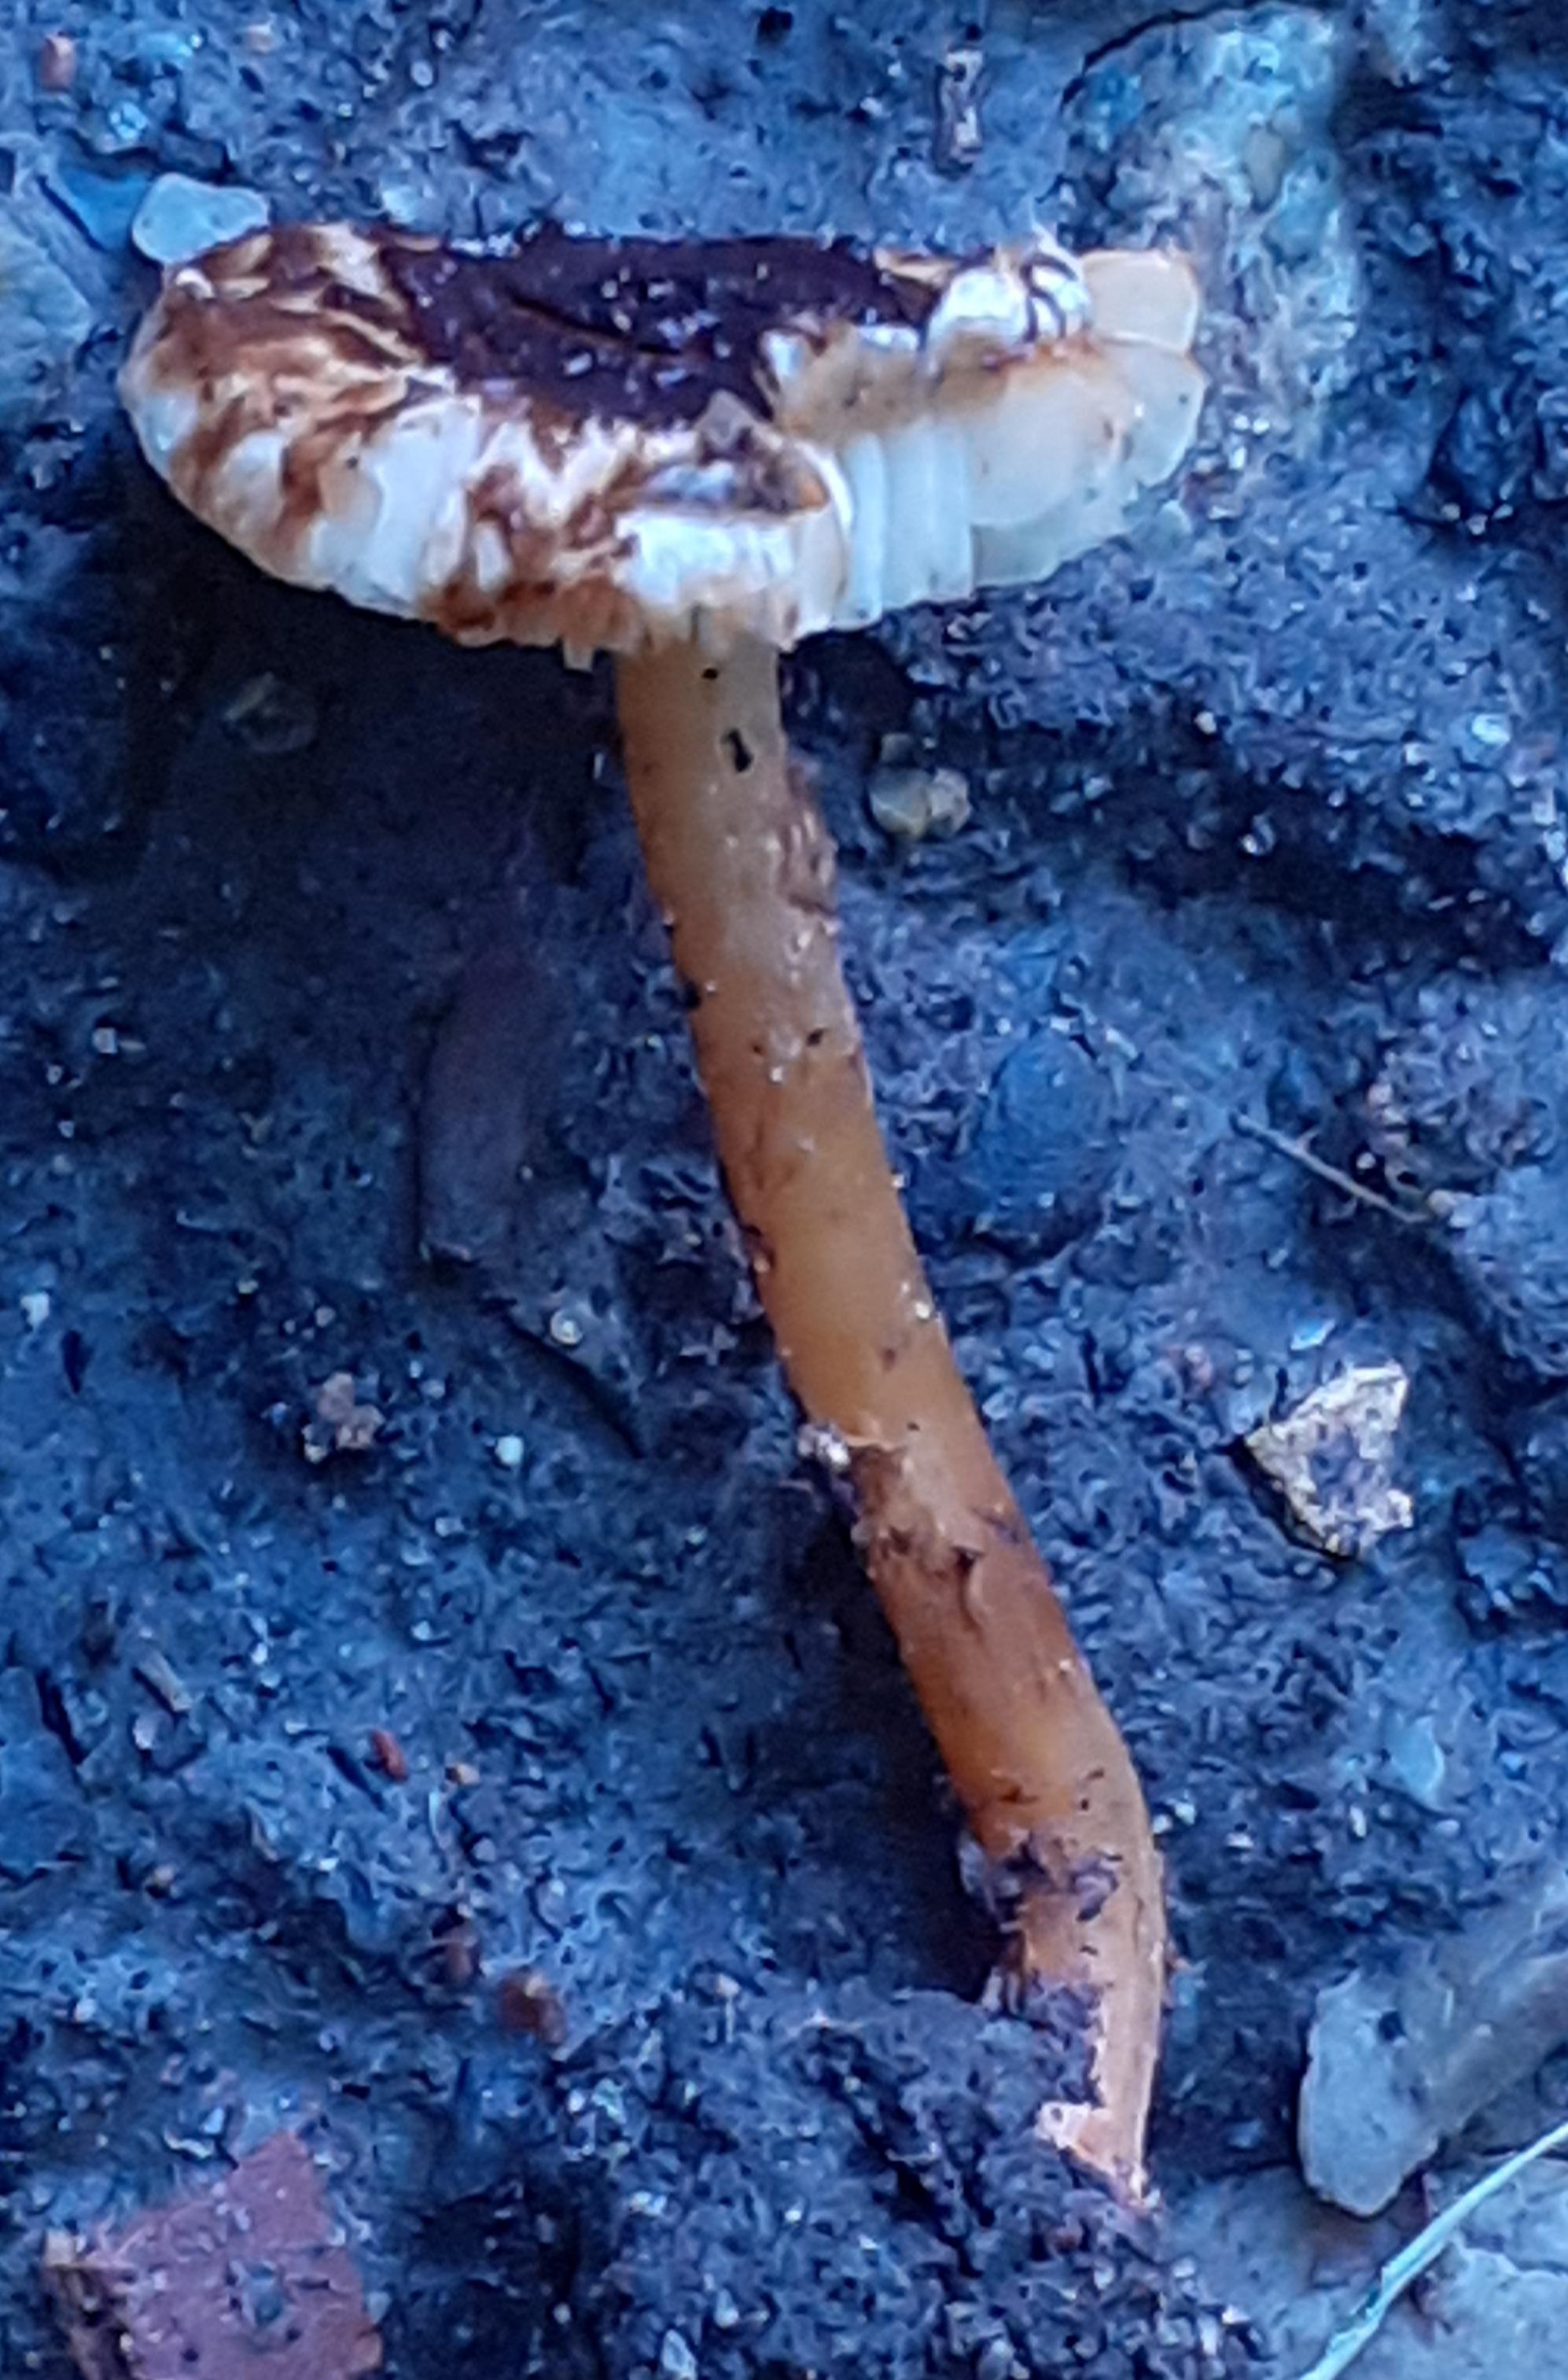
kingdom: Fungi
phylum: Basidiomycota
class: Agaricomycetes
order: Agaricales
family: Agaricaceae
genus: Lepiota
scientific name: Lepiota castanea
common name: kastaniebrun parasolhat
